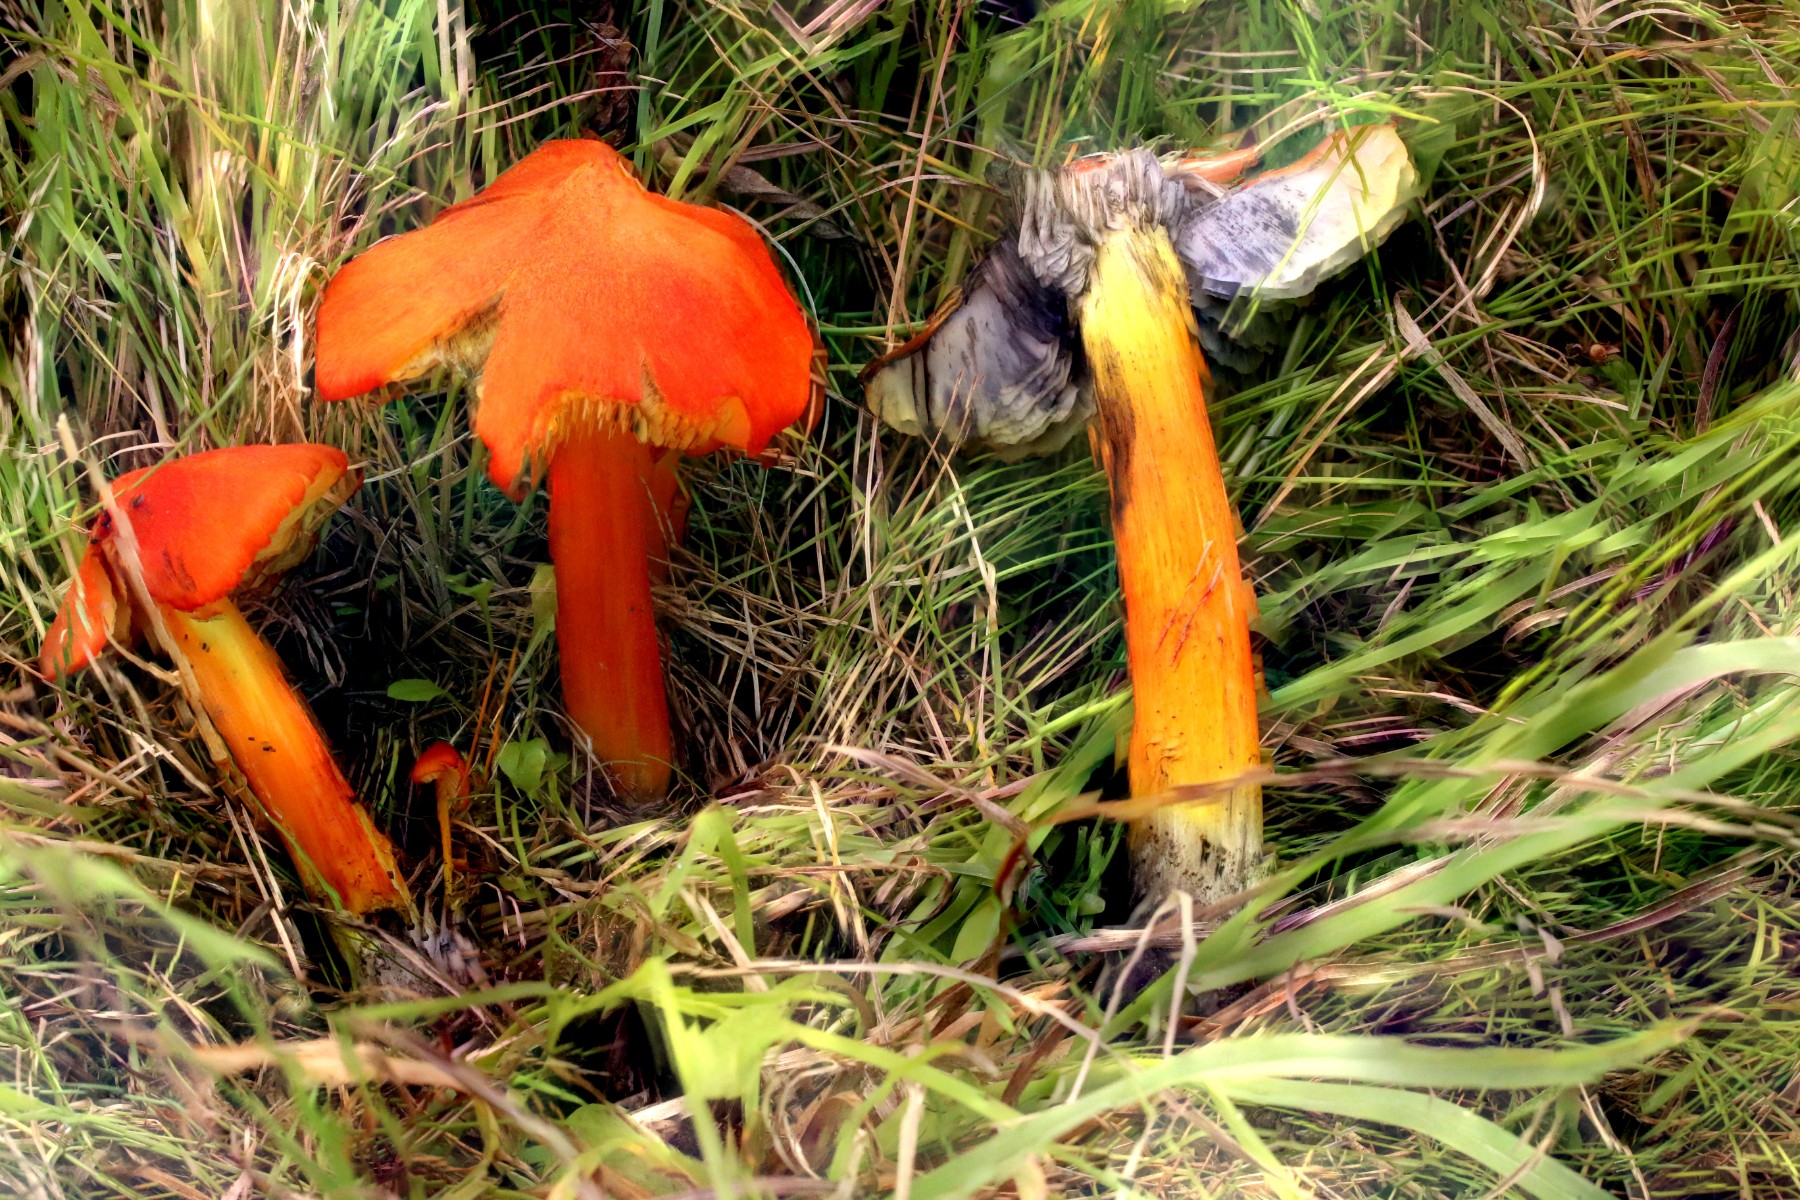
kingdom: Fungi
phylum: Basidiomycota
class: Agaricomycetes
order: Agaricales
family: Hygrophoraceae
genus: Hygrocybe
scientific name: Hygrocybe conica
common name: kegle-vokshat
